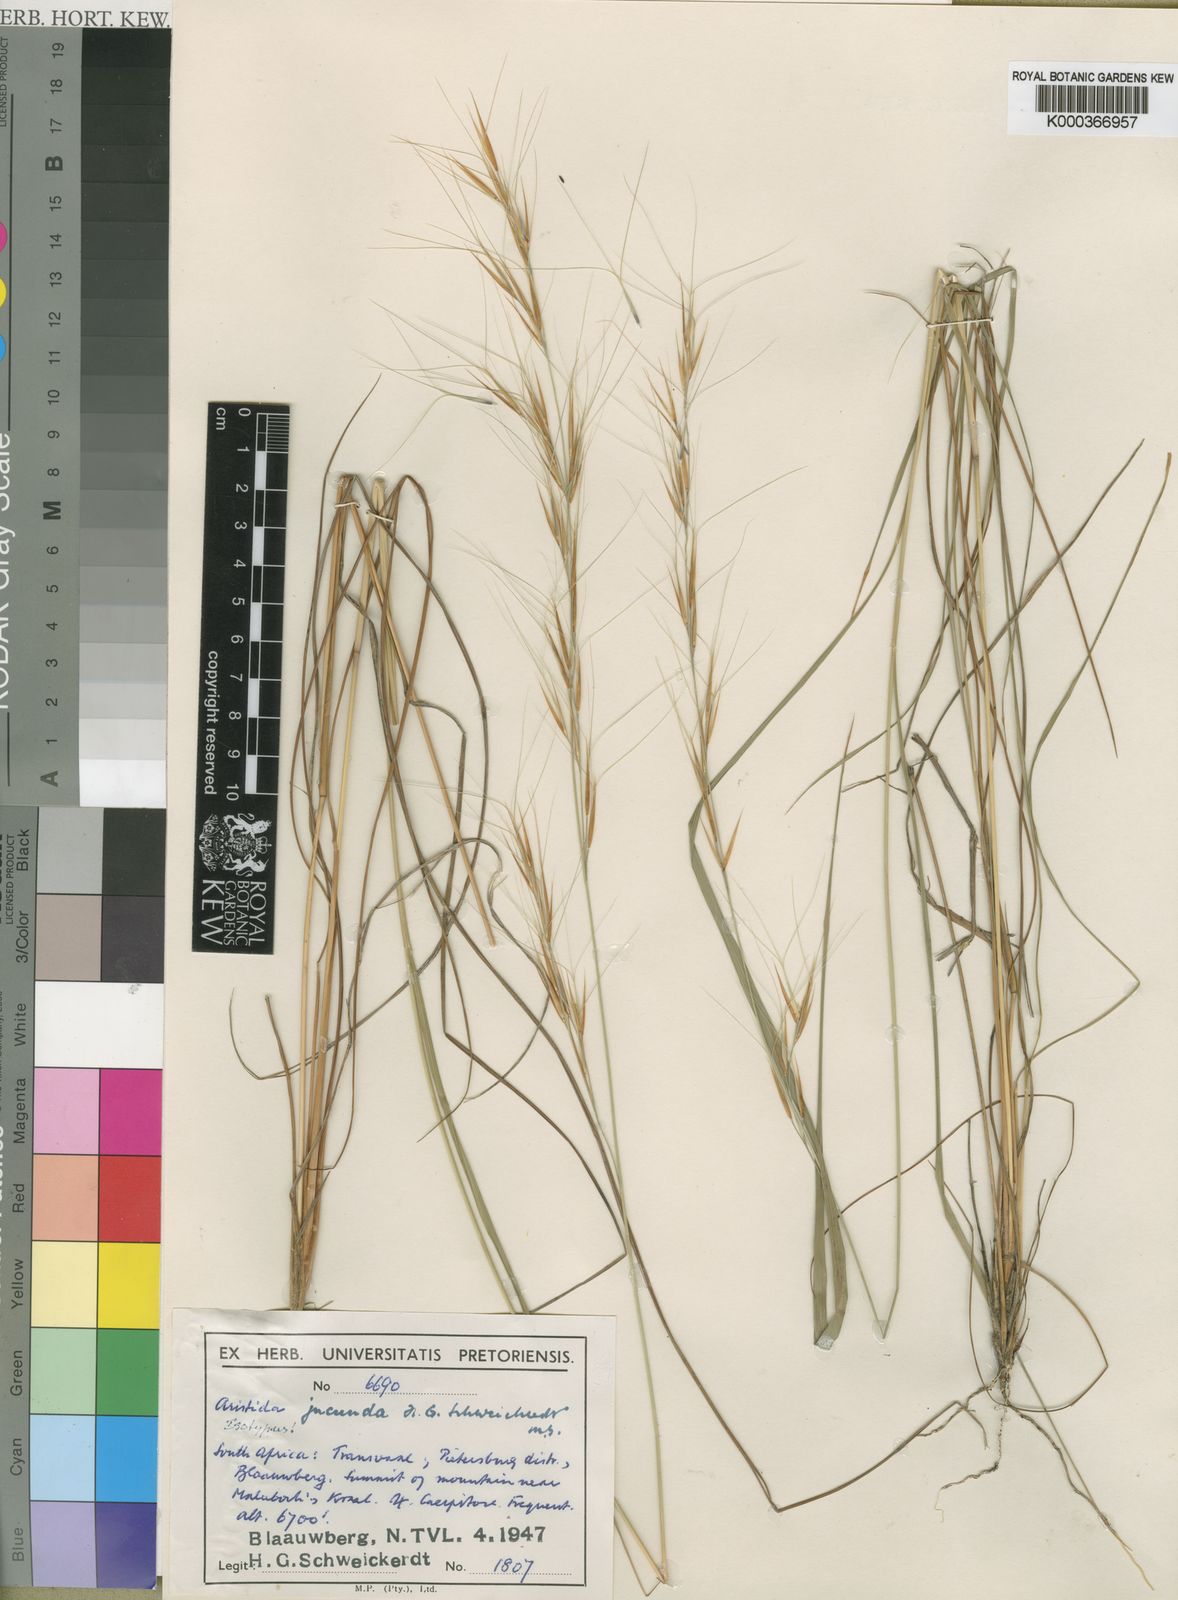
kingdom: Plantae
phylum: Tracheophyta
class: Liliopsida
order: Poales
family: Poaceae
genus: Sartidia
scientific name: Sartidia jucunda
